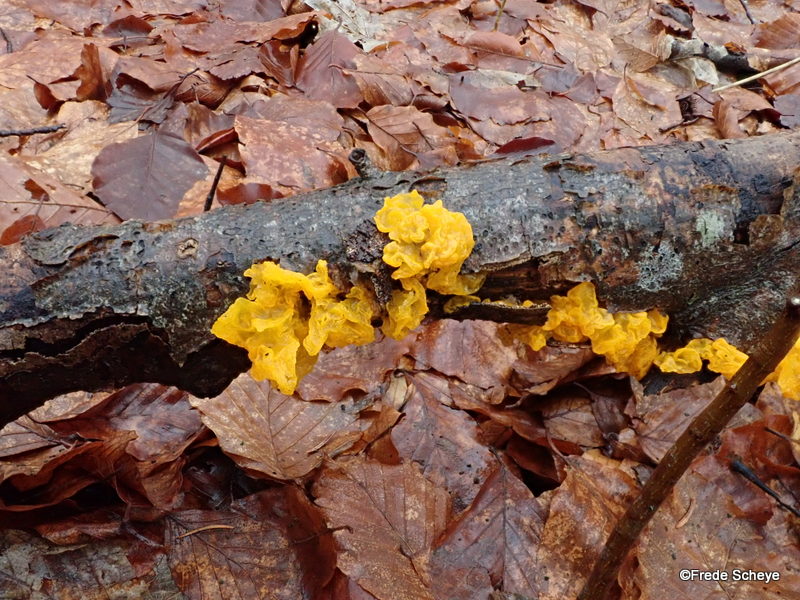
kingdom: Fungi
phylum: Basidiomycota
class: Tremellomycetes
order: Tremellales
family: Tremellaceae
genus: Tremella
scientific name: Tremella mesenterica
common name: gul bævresvamp
